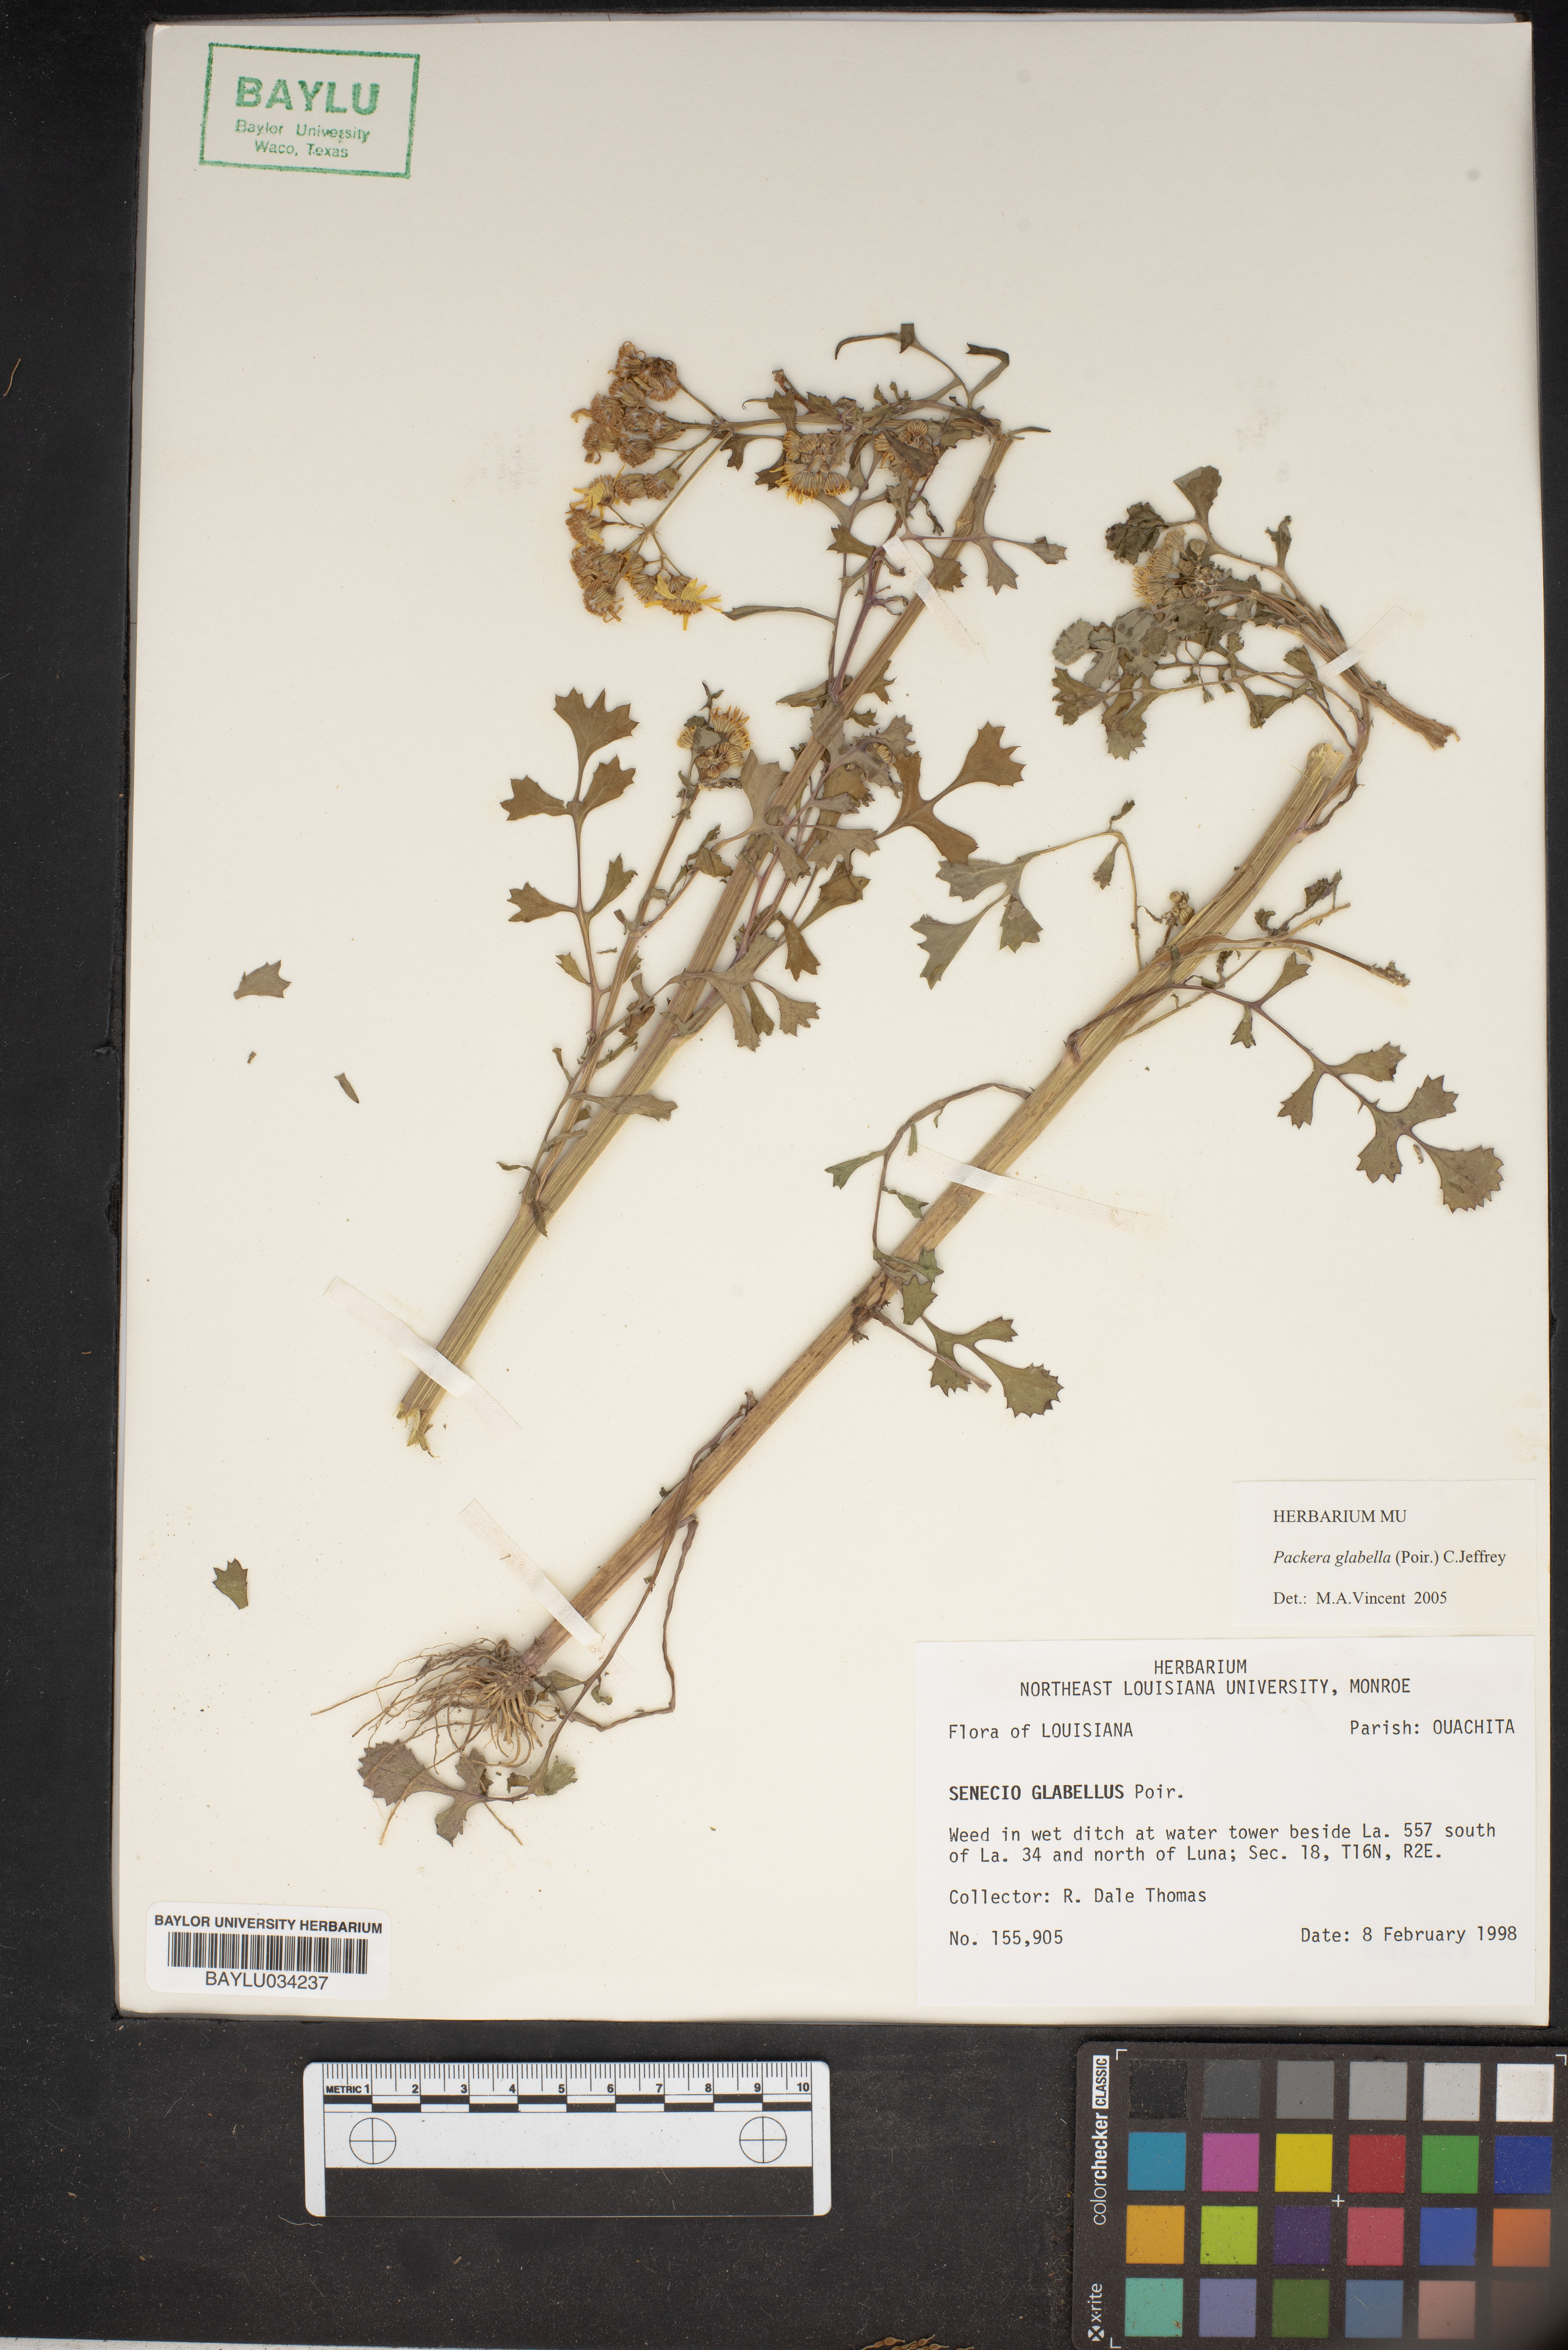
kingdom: Plantae
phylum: Tracheophyta
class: Magnoliopsida
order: Asterales
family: Asteraceae
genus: Packera
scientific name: Packera glabella
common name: Butterweed
